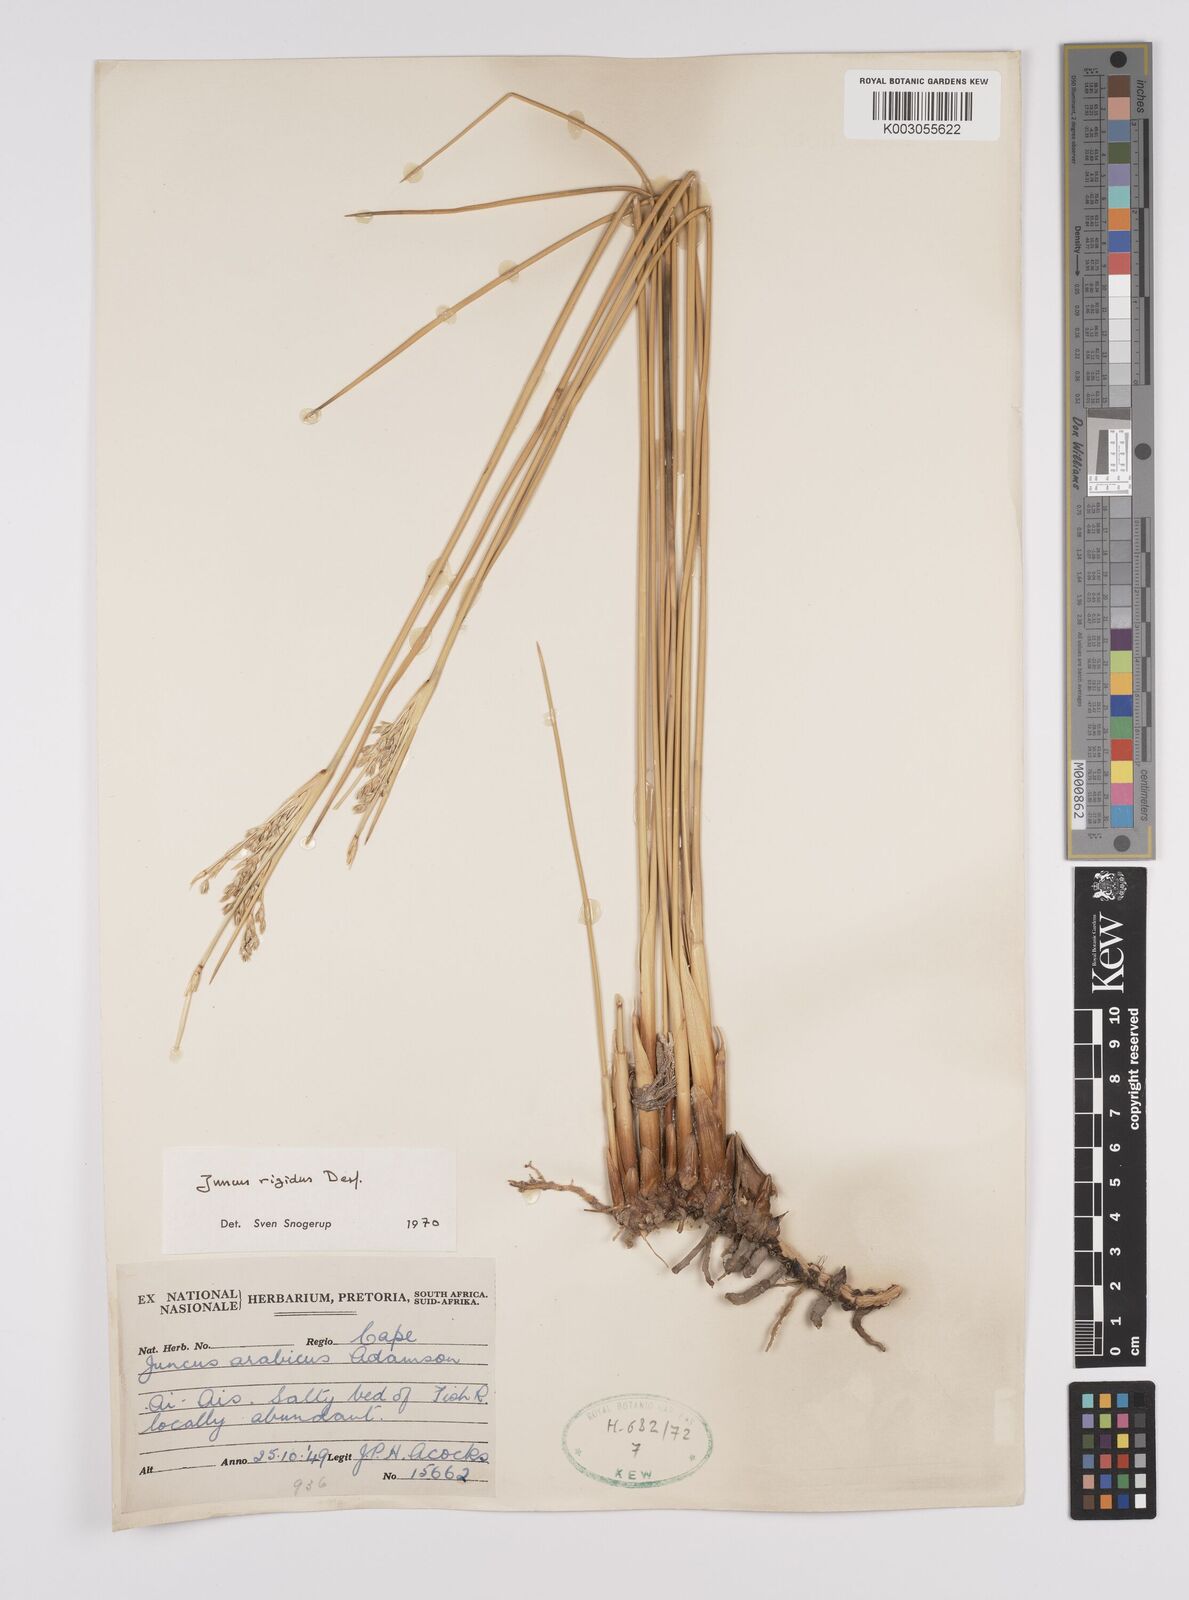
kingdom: Plantae
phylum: Tracheophyta
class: Liliopsida
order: Poales
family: Juncaceae
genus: Juncus
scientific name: Juncus rigidus
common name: Hard sea rush
